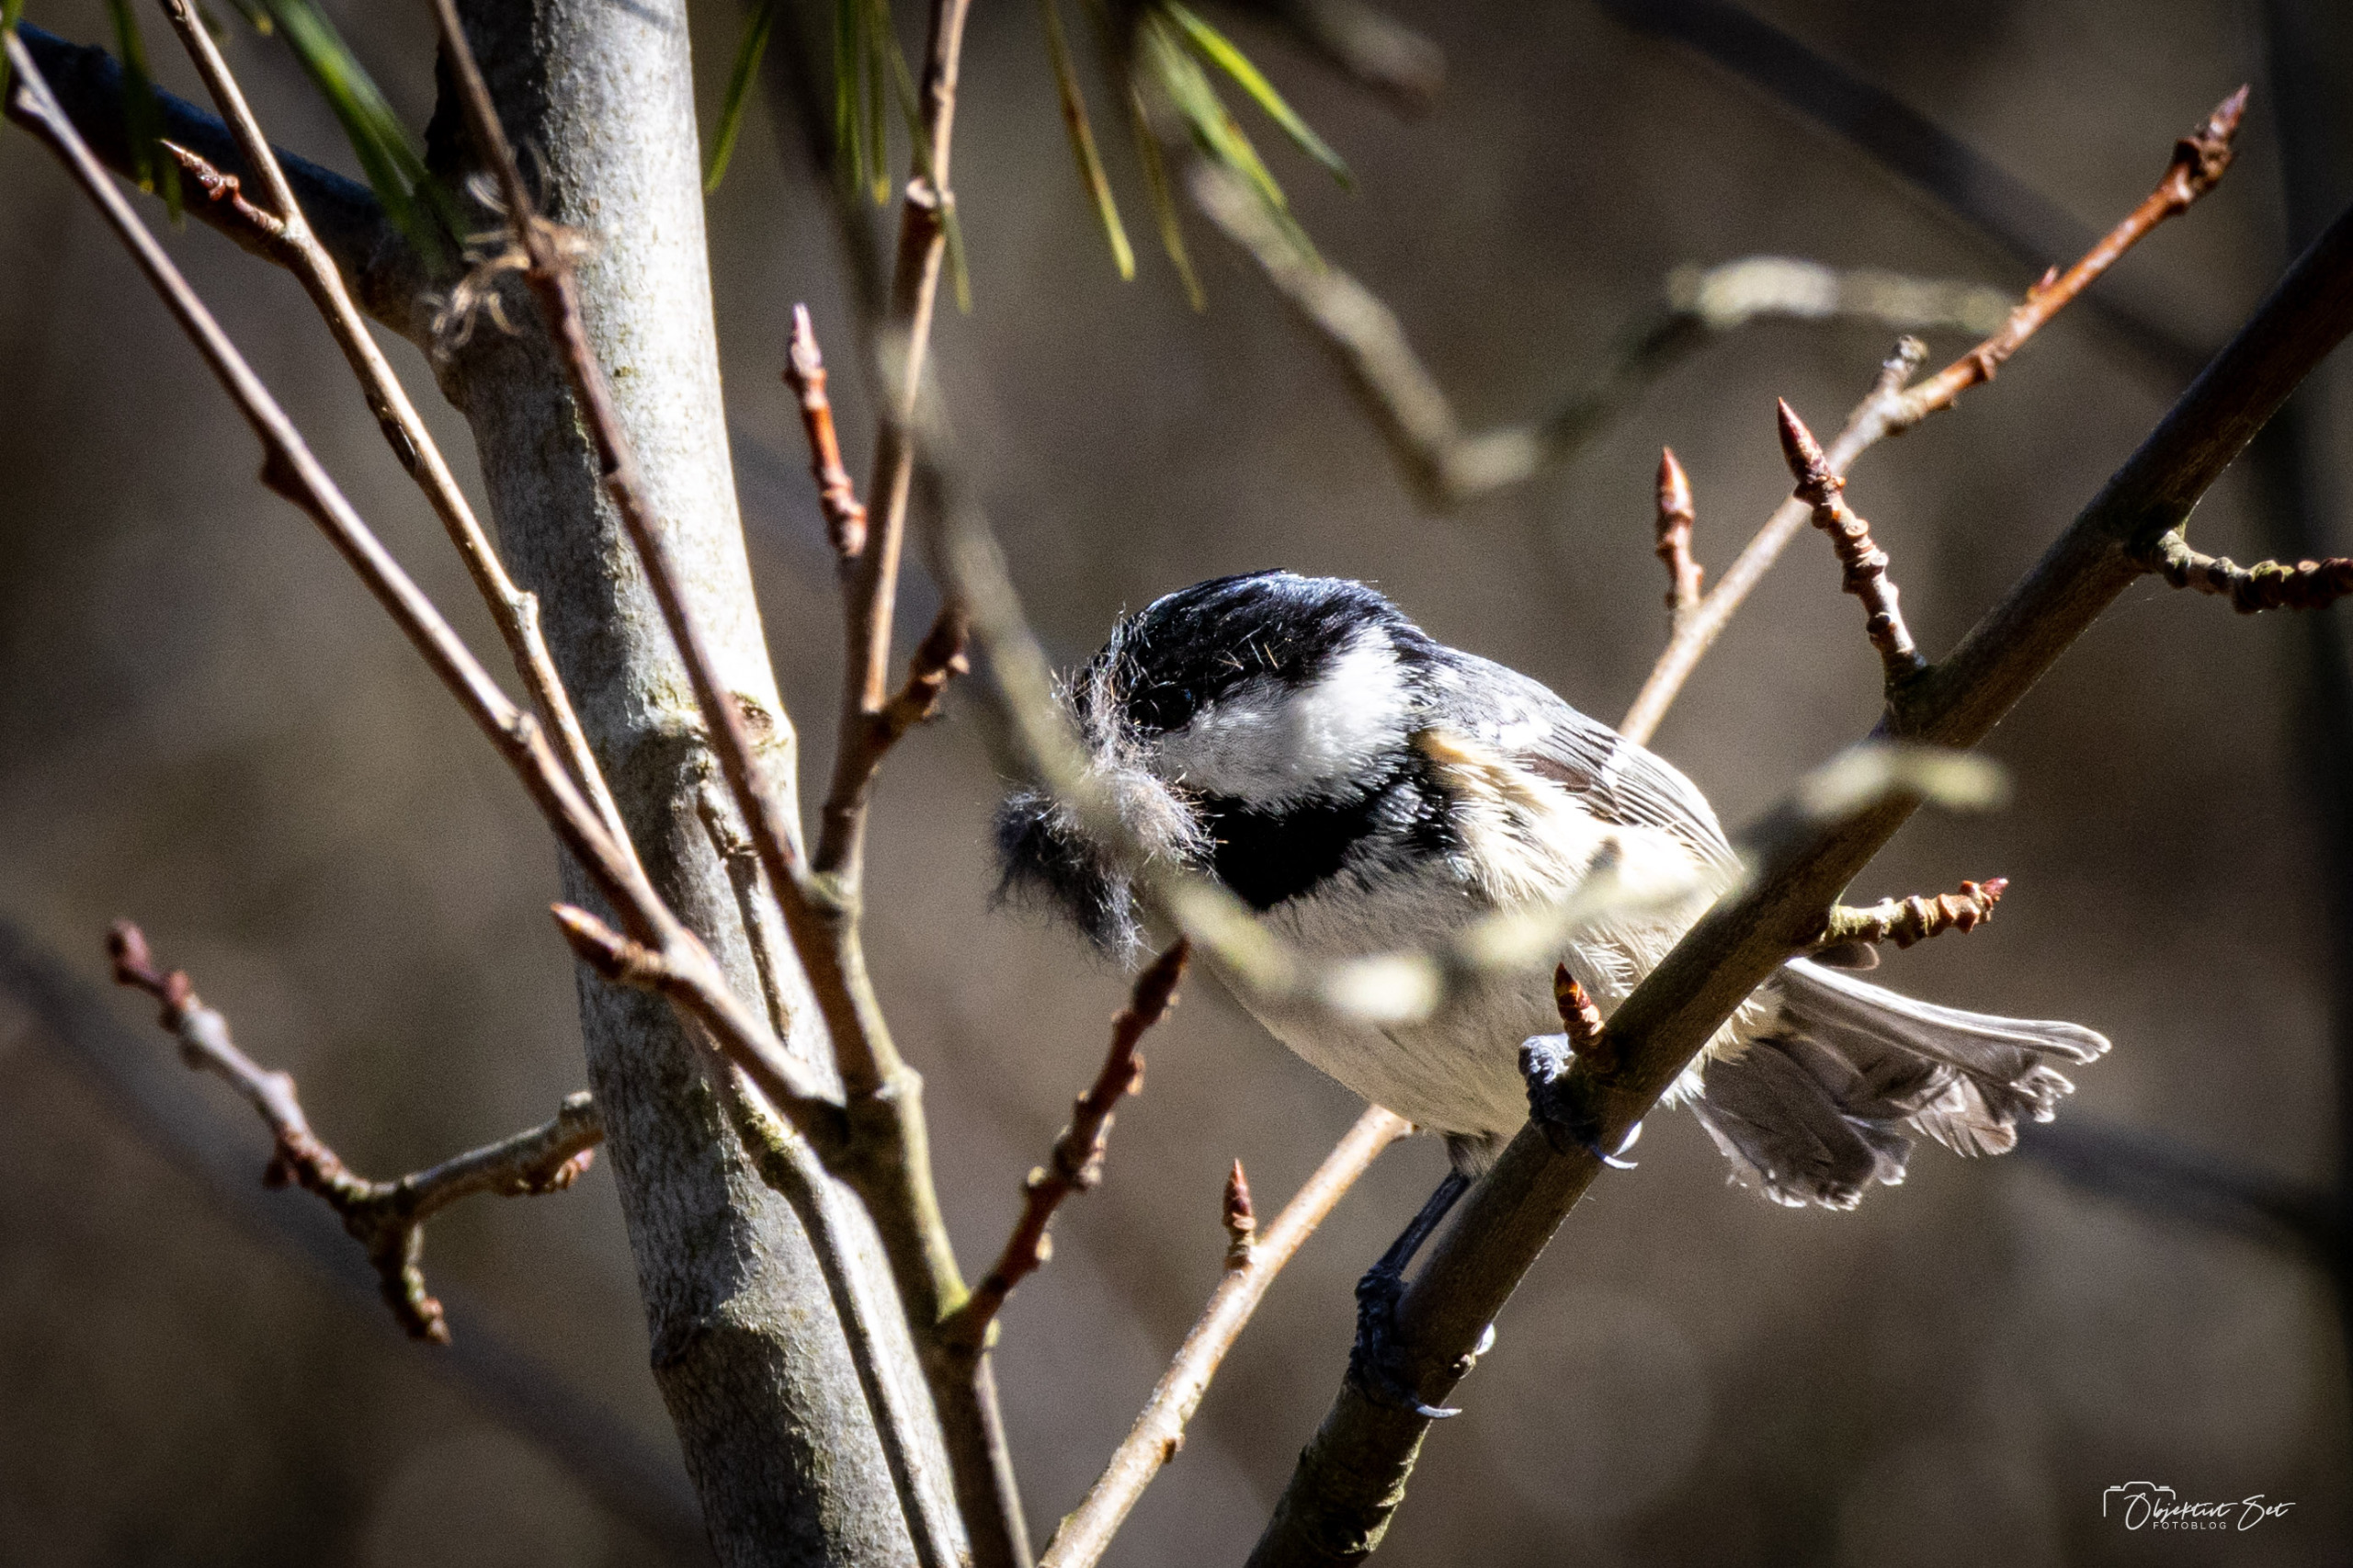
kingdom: Animalia
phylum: Chordata
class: Aves
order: Passeriformes
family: Paridae
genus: Periparus
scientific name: Periparus ater
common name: Sortmejse
